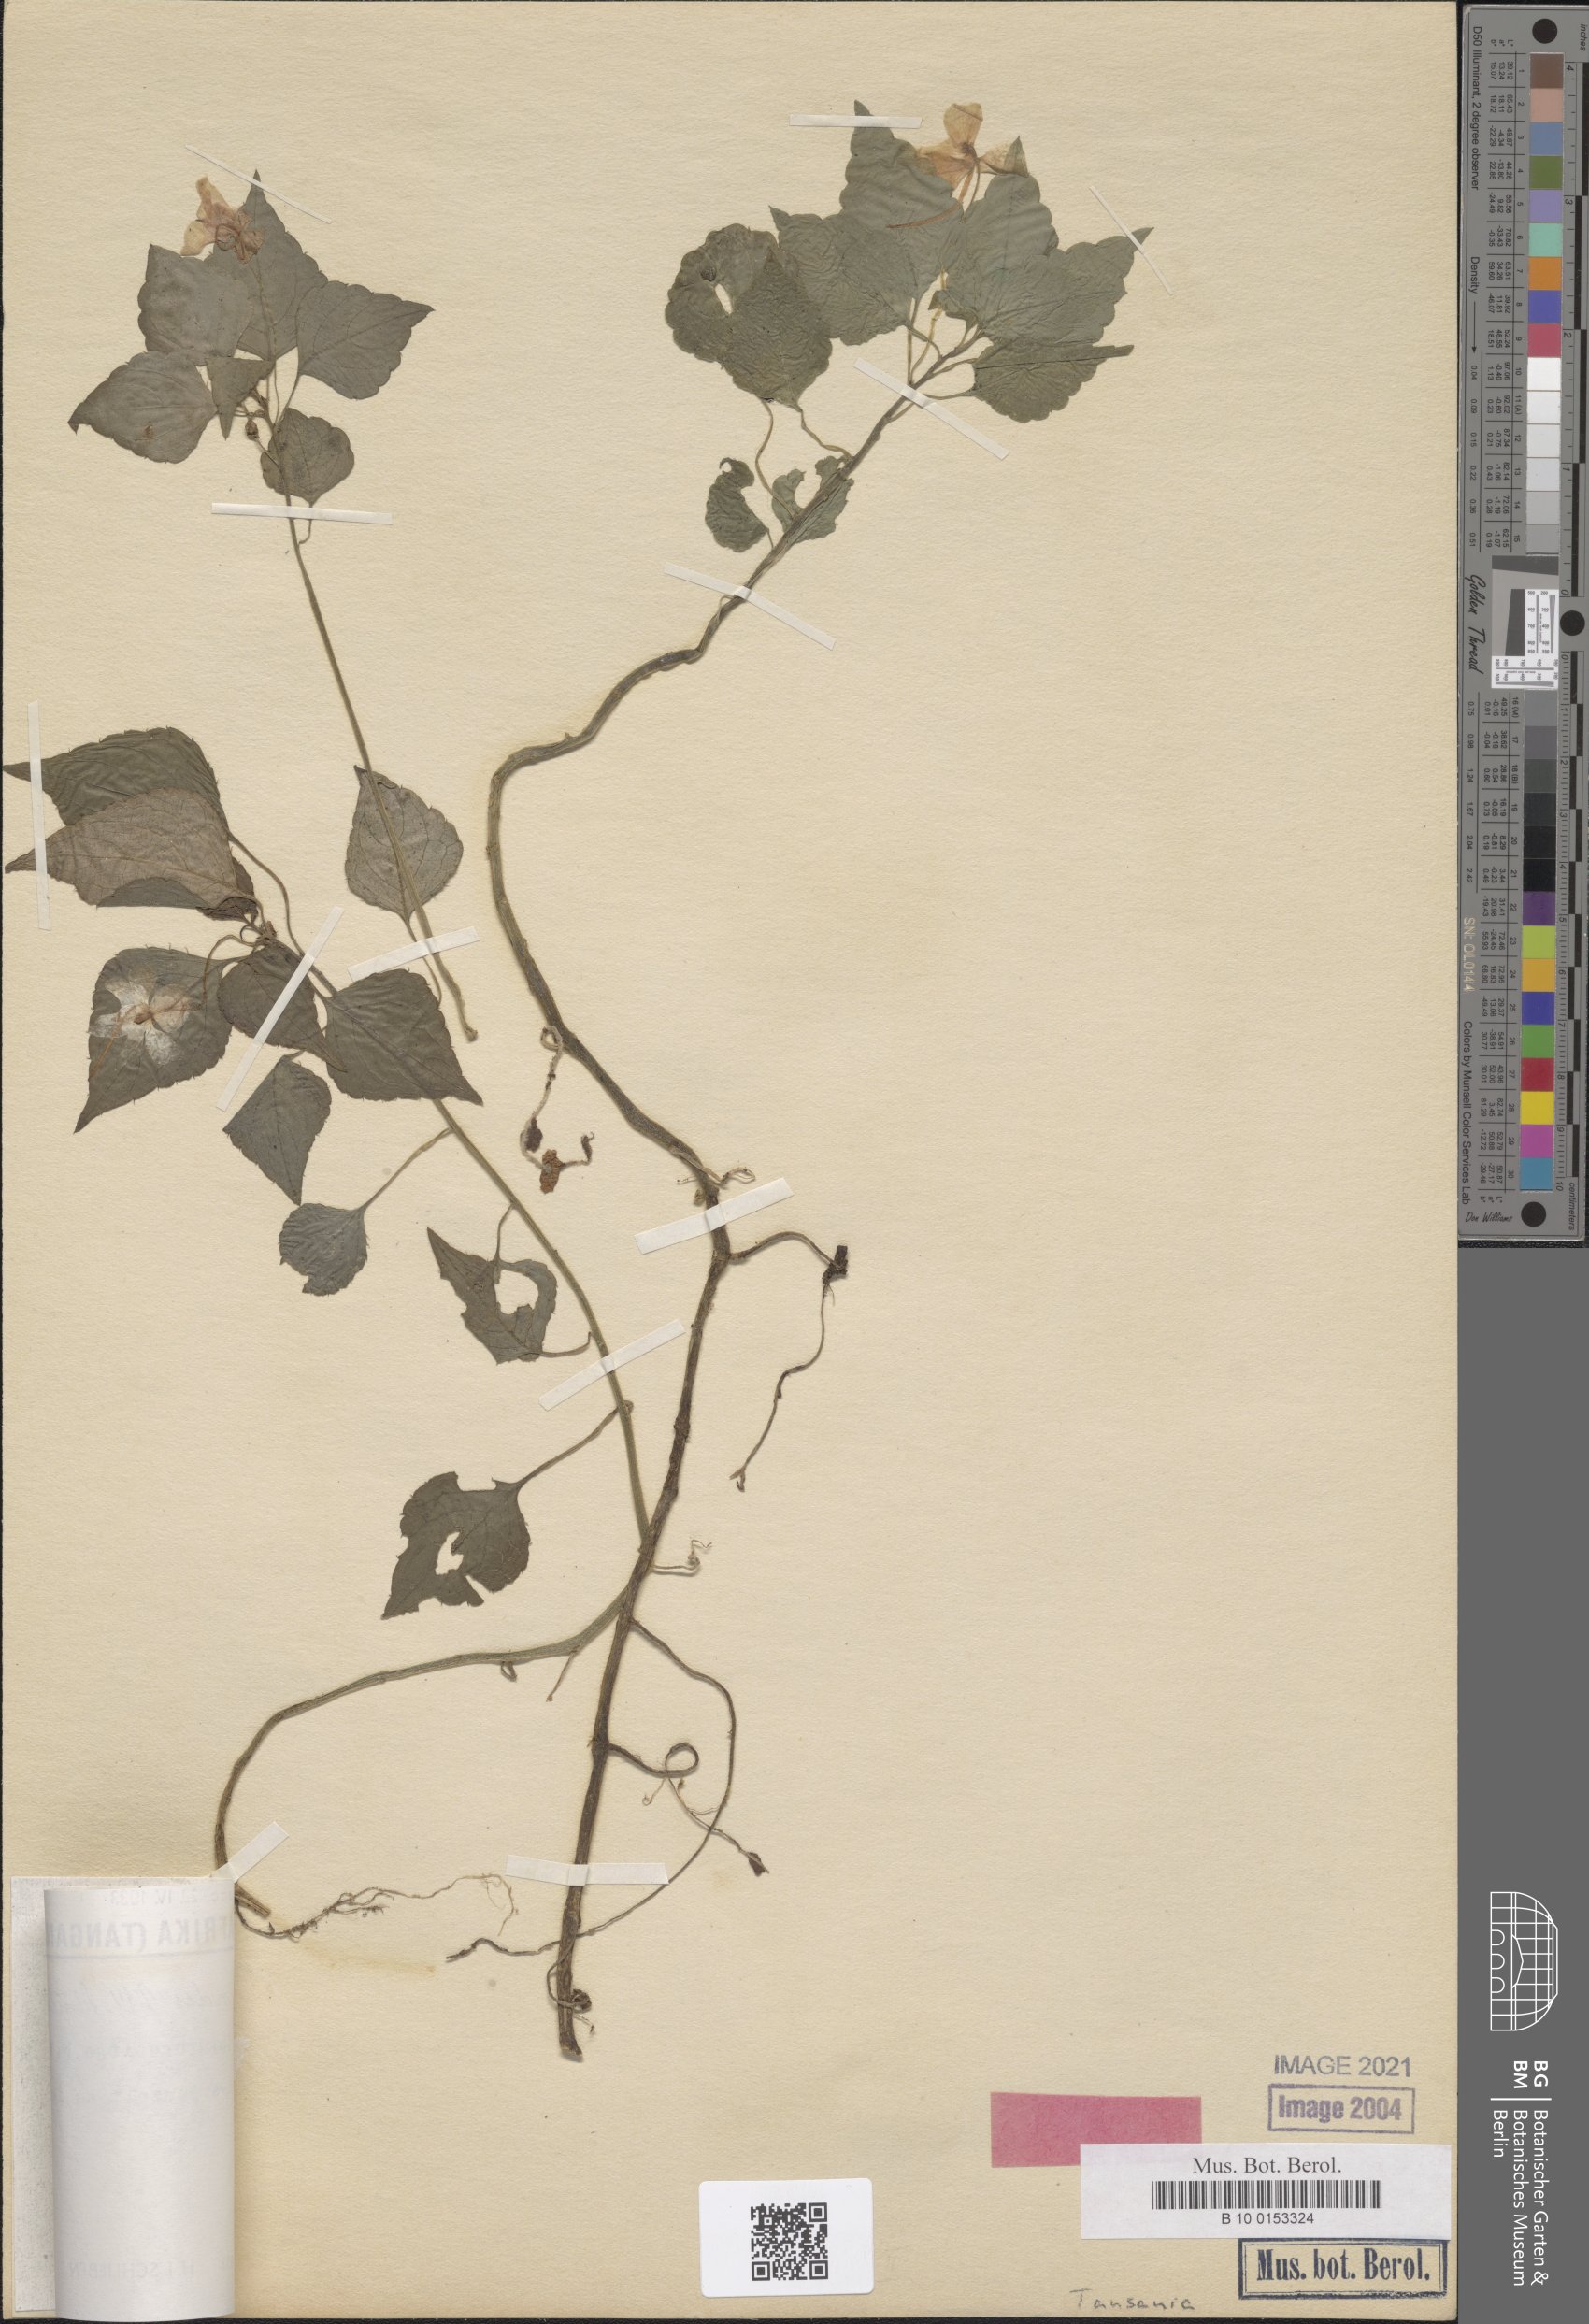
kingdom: Plantae
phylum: Tracheophyta
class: Magnoliopsida
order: Ericales
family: Balsaminaceae
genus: Impatiens
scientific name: Impatiens ioides
